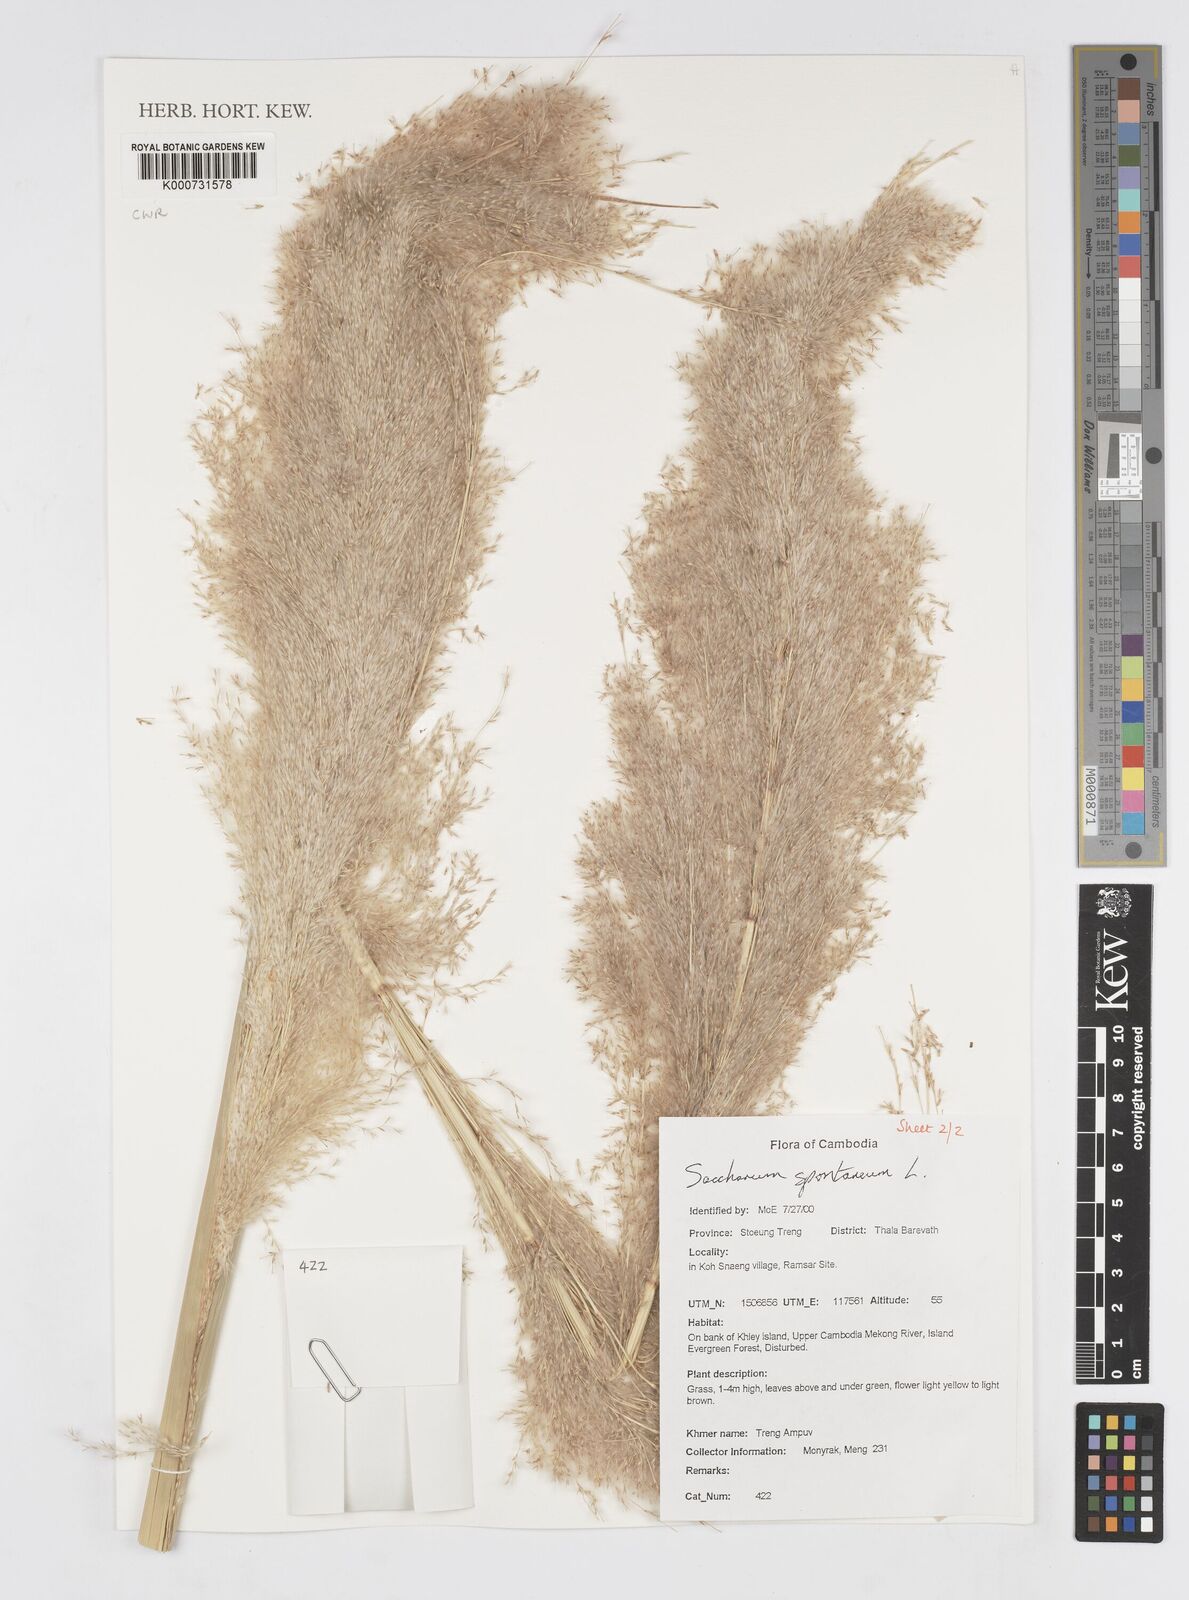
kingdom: Plantae
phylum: Tracheophyta
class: Liliopsida
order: Poales
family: Poaceae
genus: Saccharum
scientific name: Saccharum spontaneum
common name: Wild sugarcane
